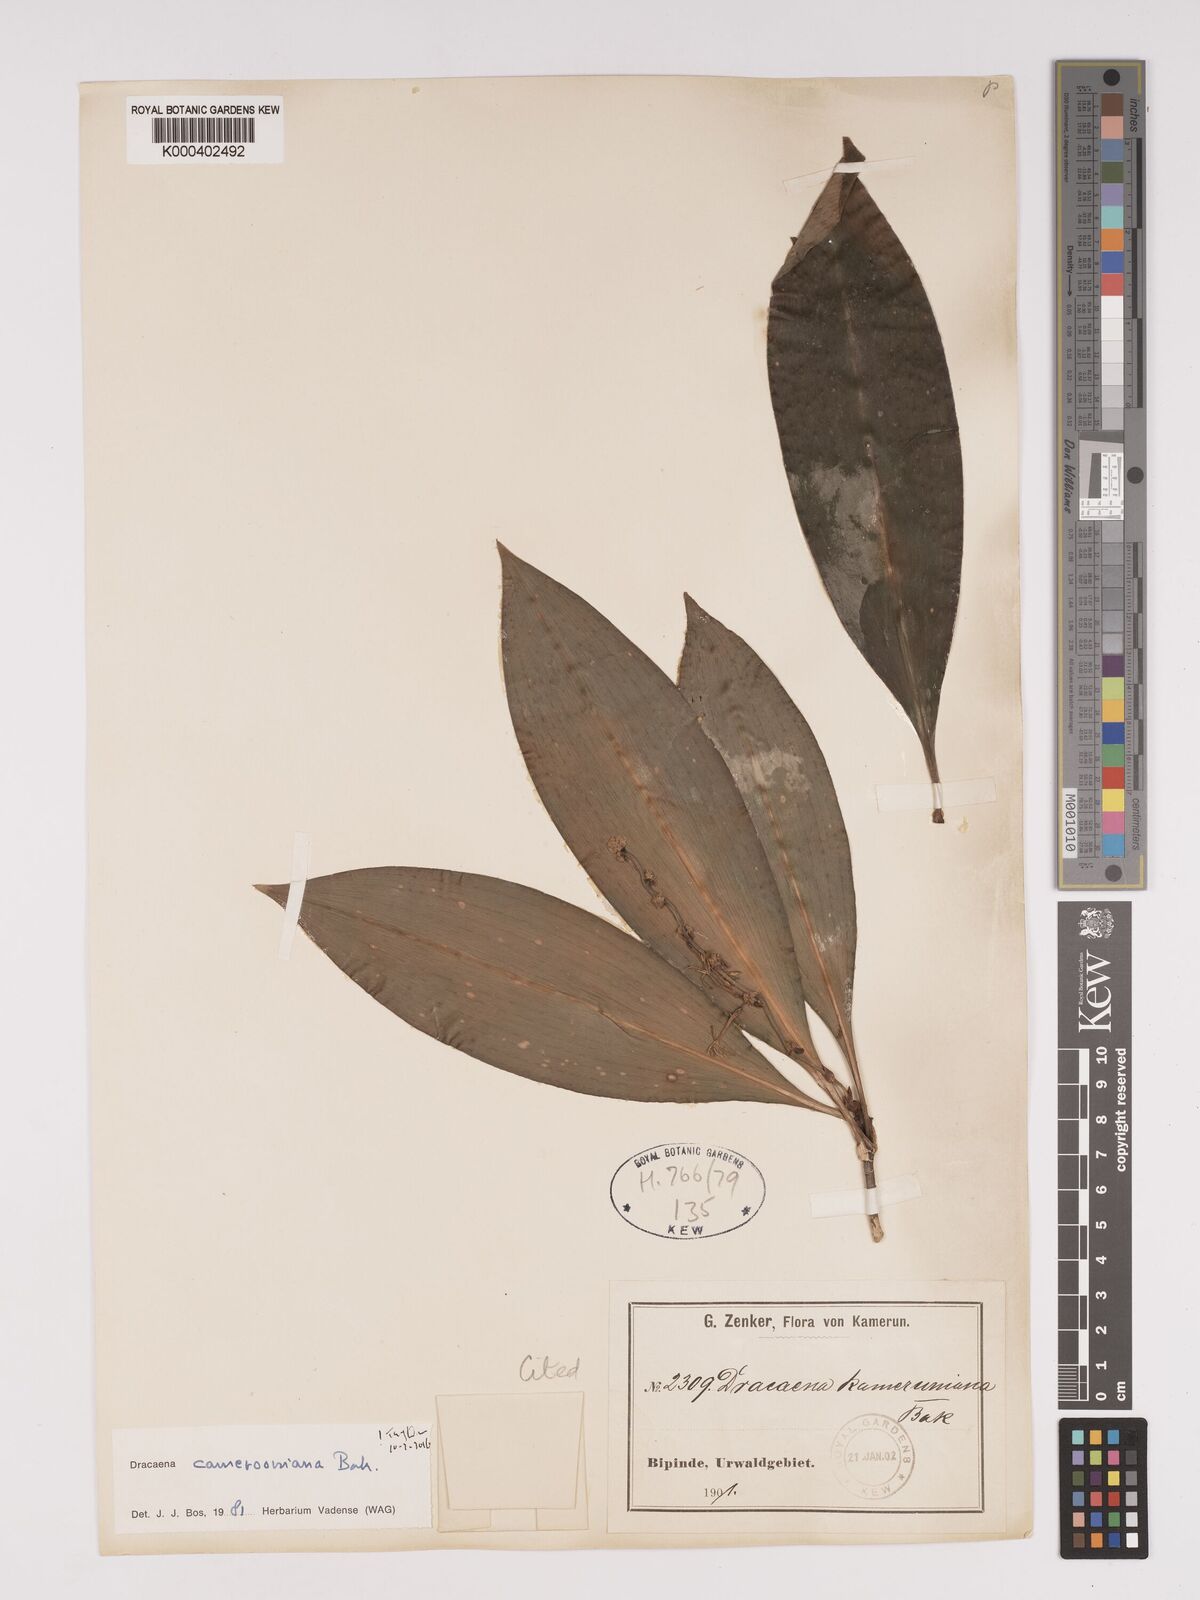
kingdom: Plantae
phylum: Tracheophyta
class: Liliopsida
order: Asparagales
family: Asparagaceae
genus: Dracaena
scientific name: Dracaena camerooniana
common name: Dragon tree
